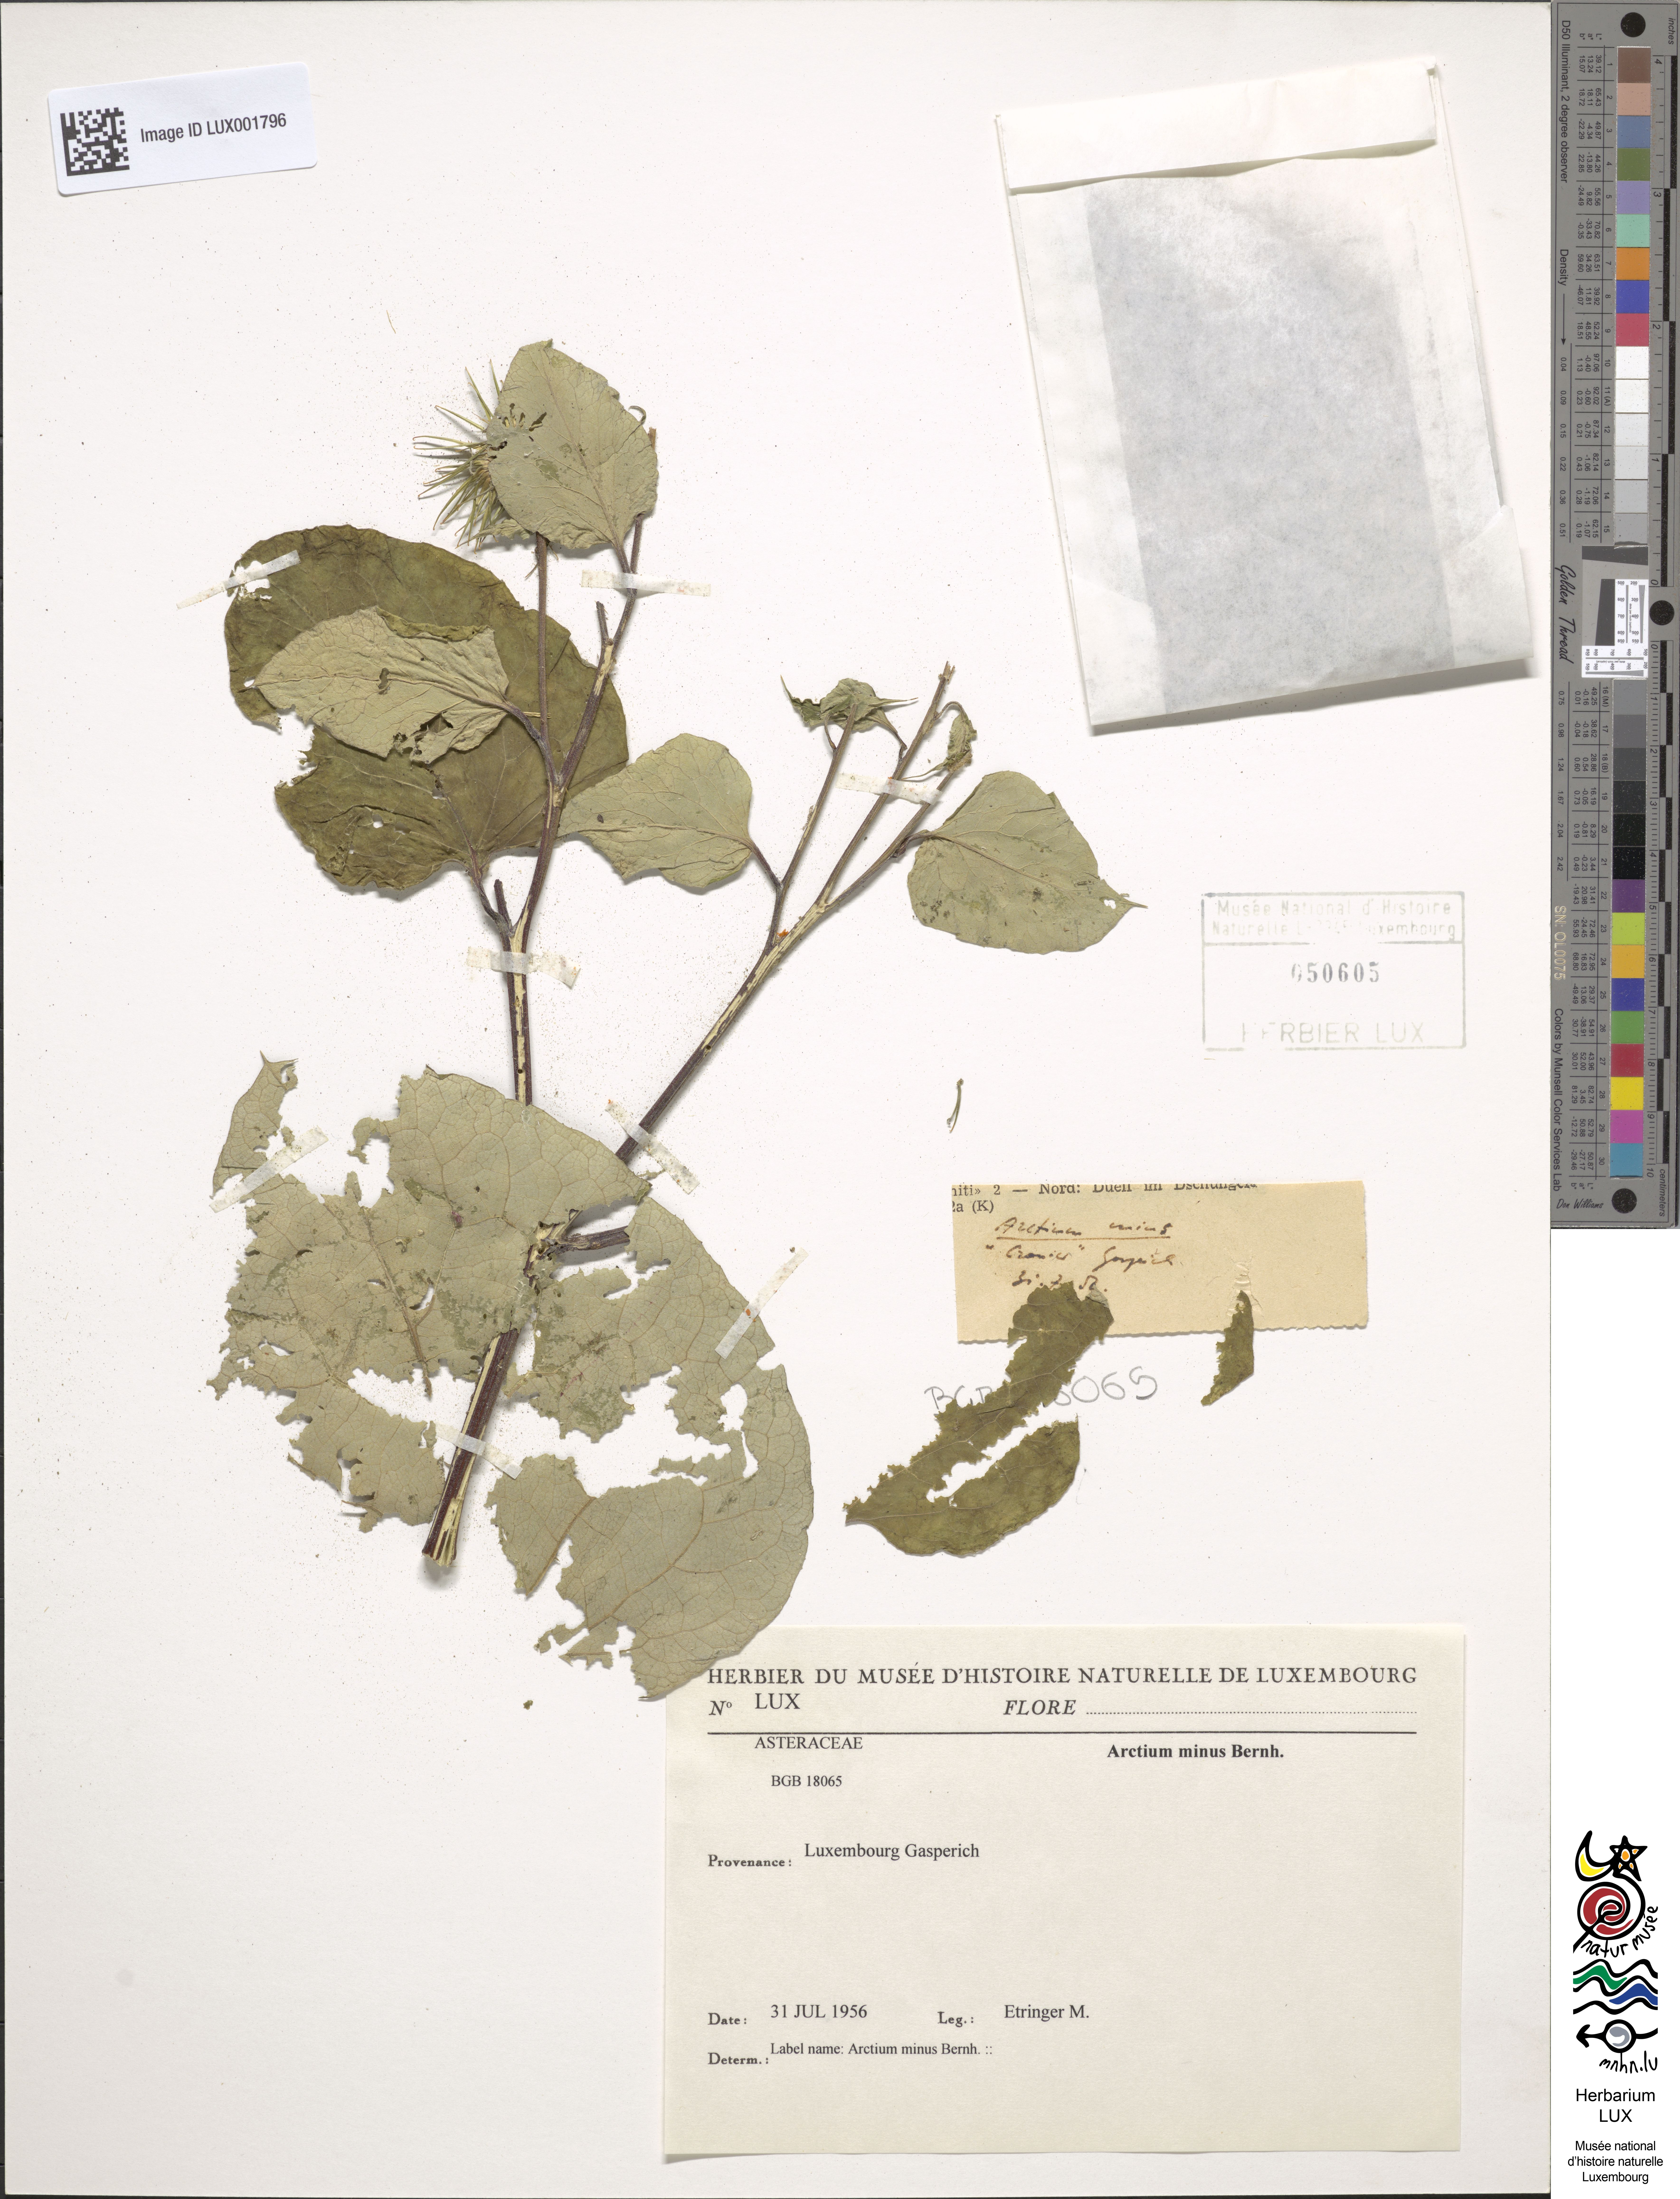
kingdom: Plantae
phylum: Tracheophyta
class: Magnoliopsida
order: Asterales
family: Asteraceae
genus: Arctium
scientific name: Arctium minus
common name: Lesser burdock
